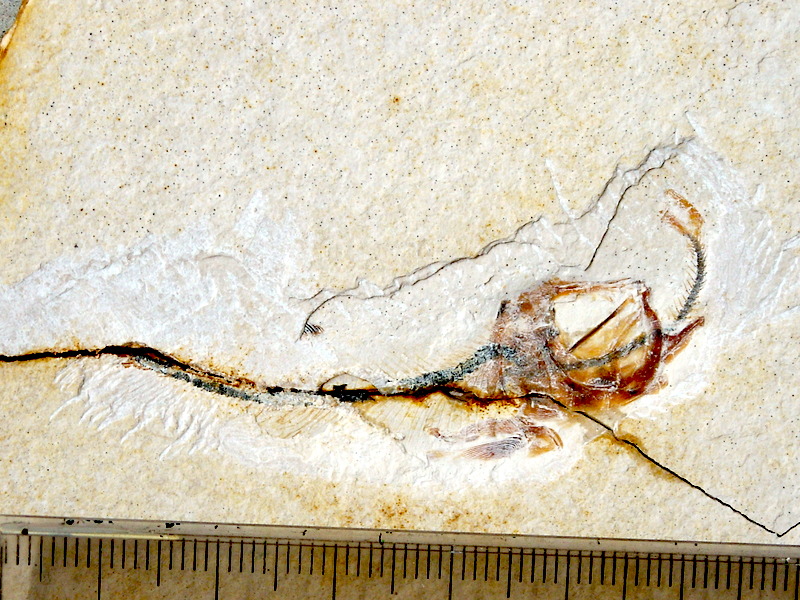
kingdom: Animalia
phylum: Chordata
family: Ascalaboidae
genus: Ebertichthys
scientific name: Ebertichthys ettlingensis
